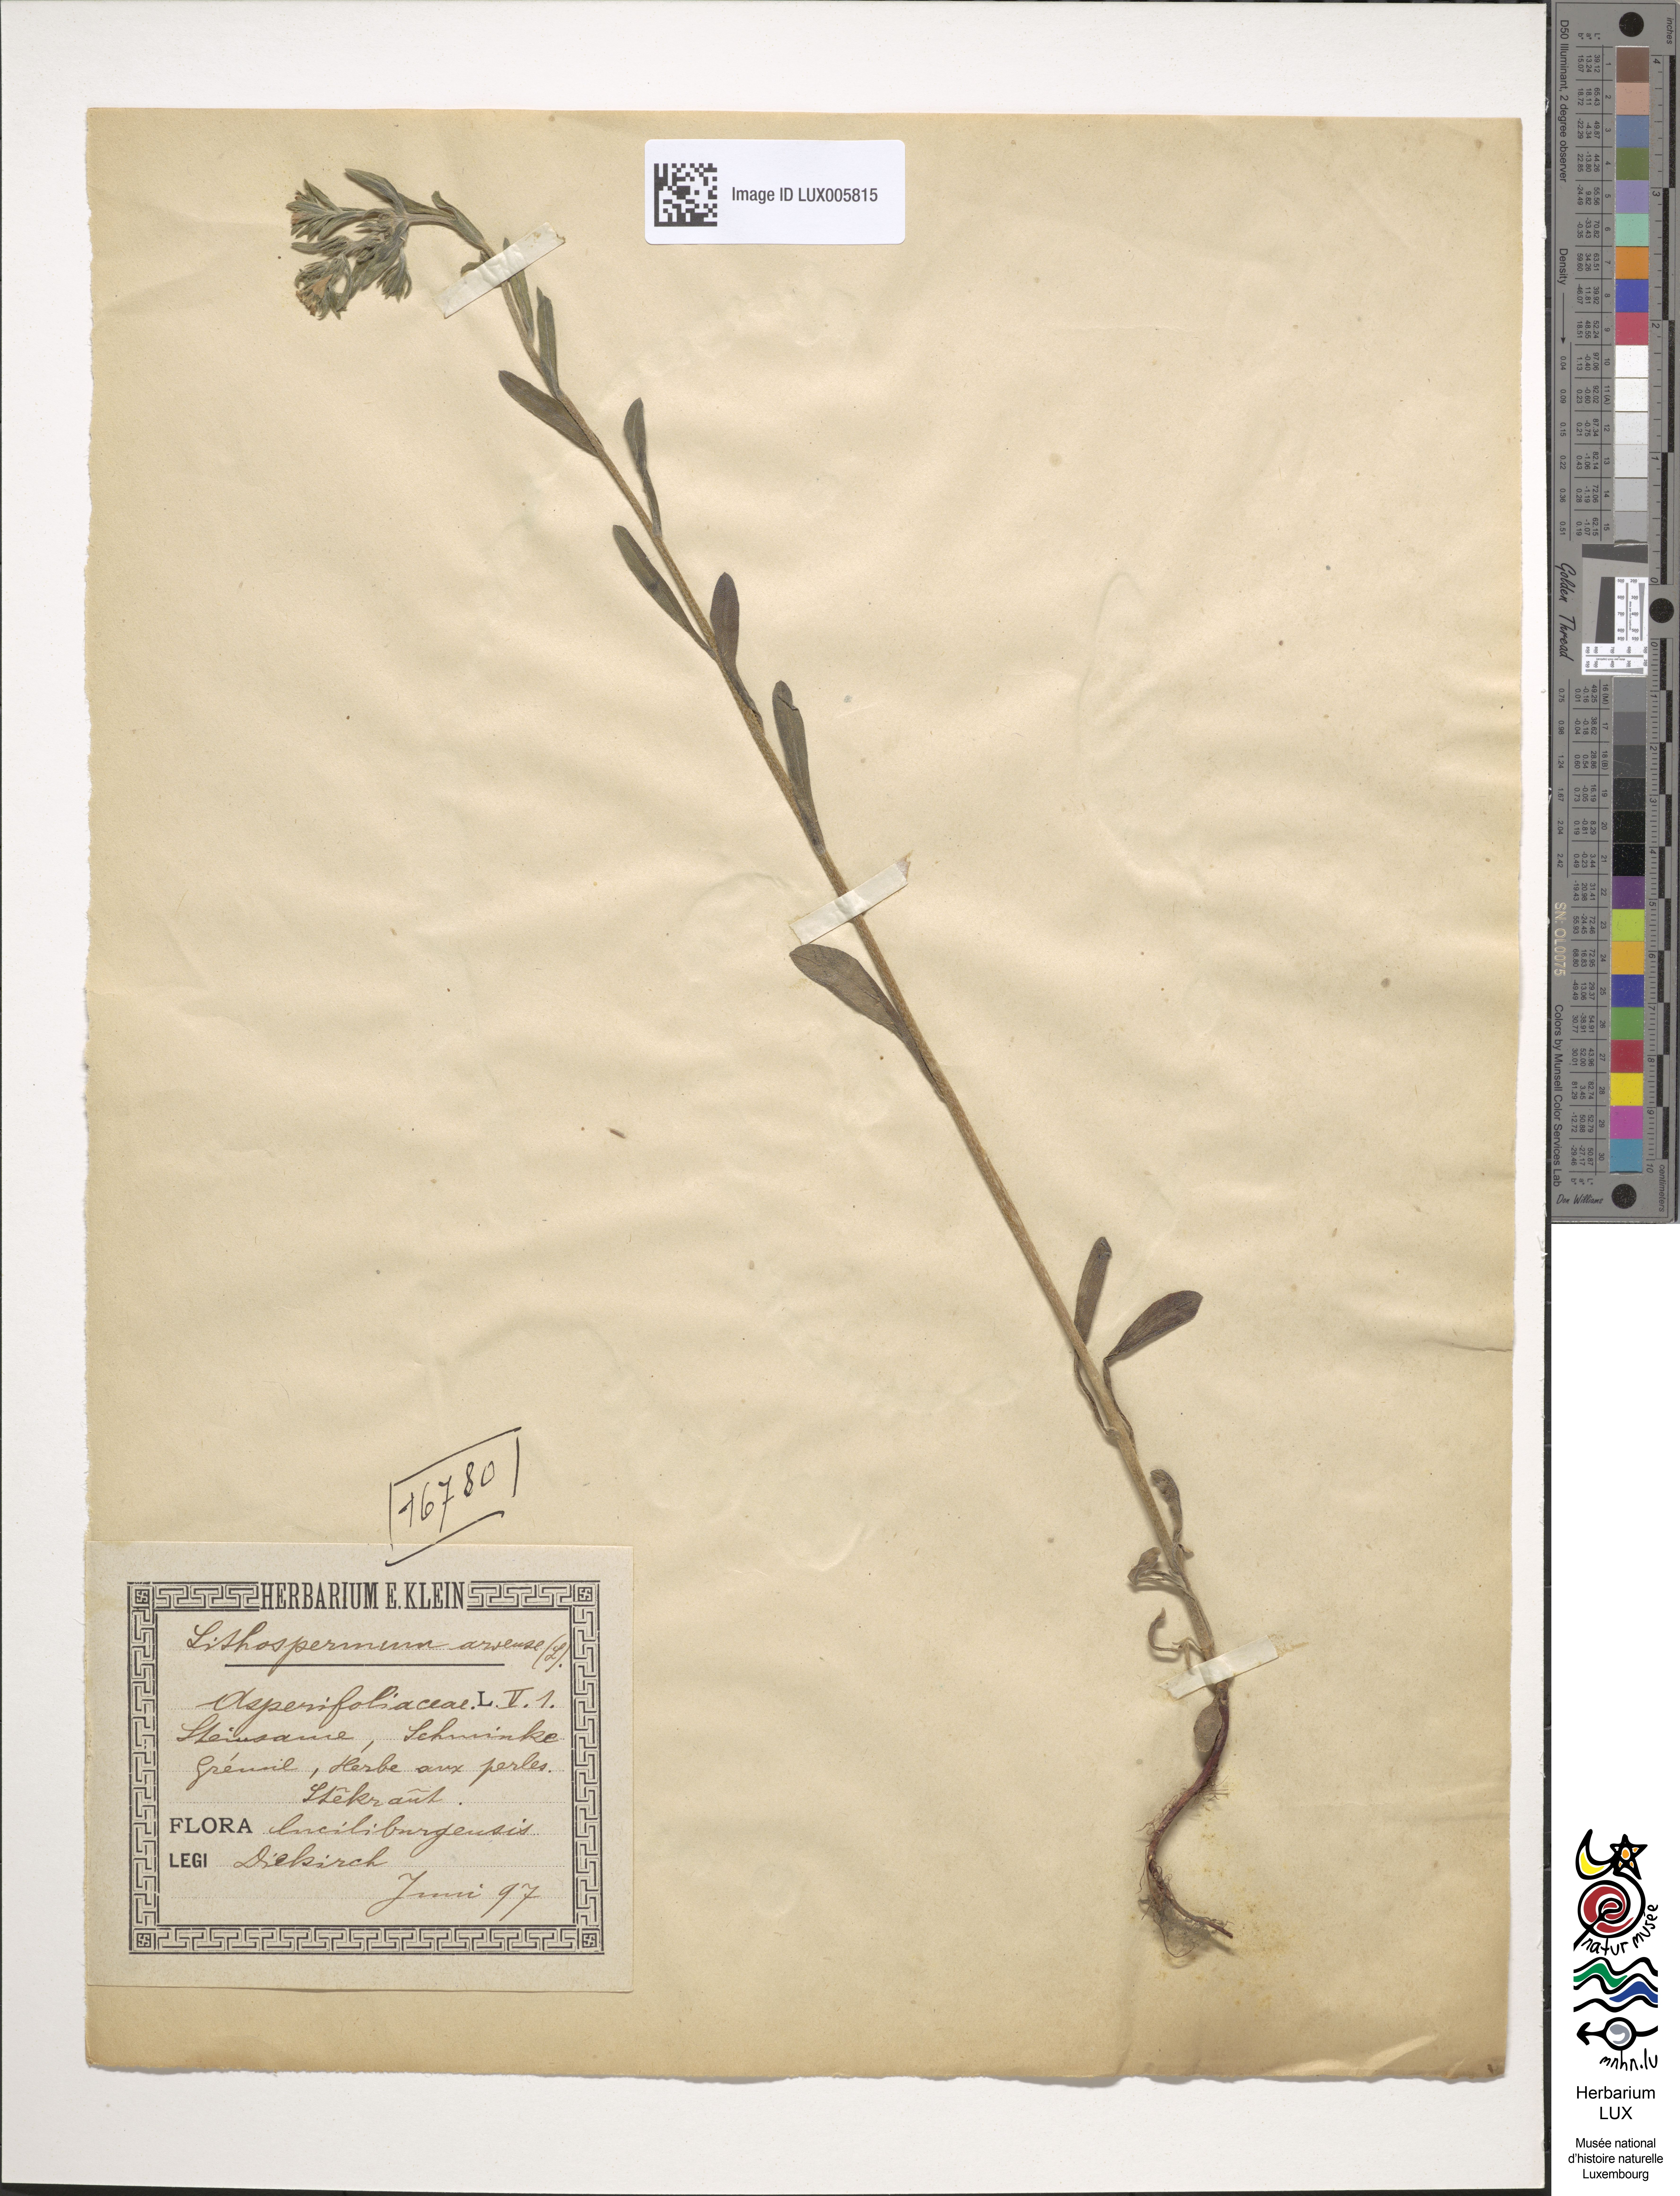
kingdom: Plantae
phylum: Tracheophyta
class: Magnoliopsida
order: Boraginales
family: Boraginaceae
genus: Buglossoides
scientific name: Buglossoides arvensis
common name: Corn gromwell
